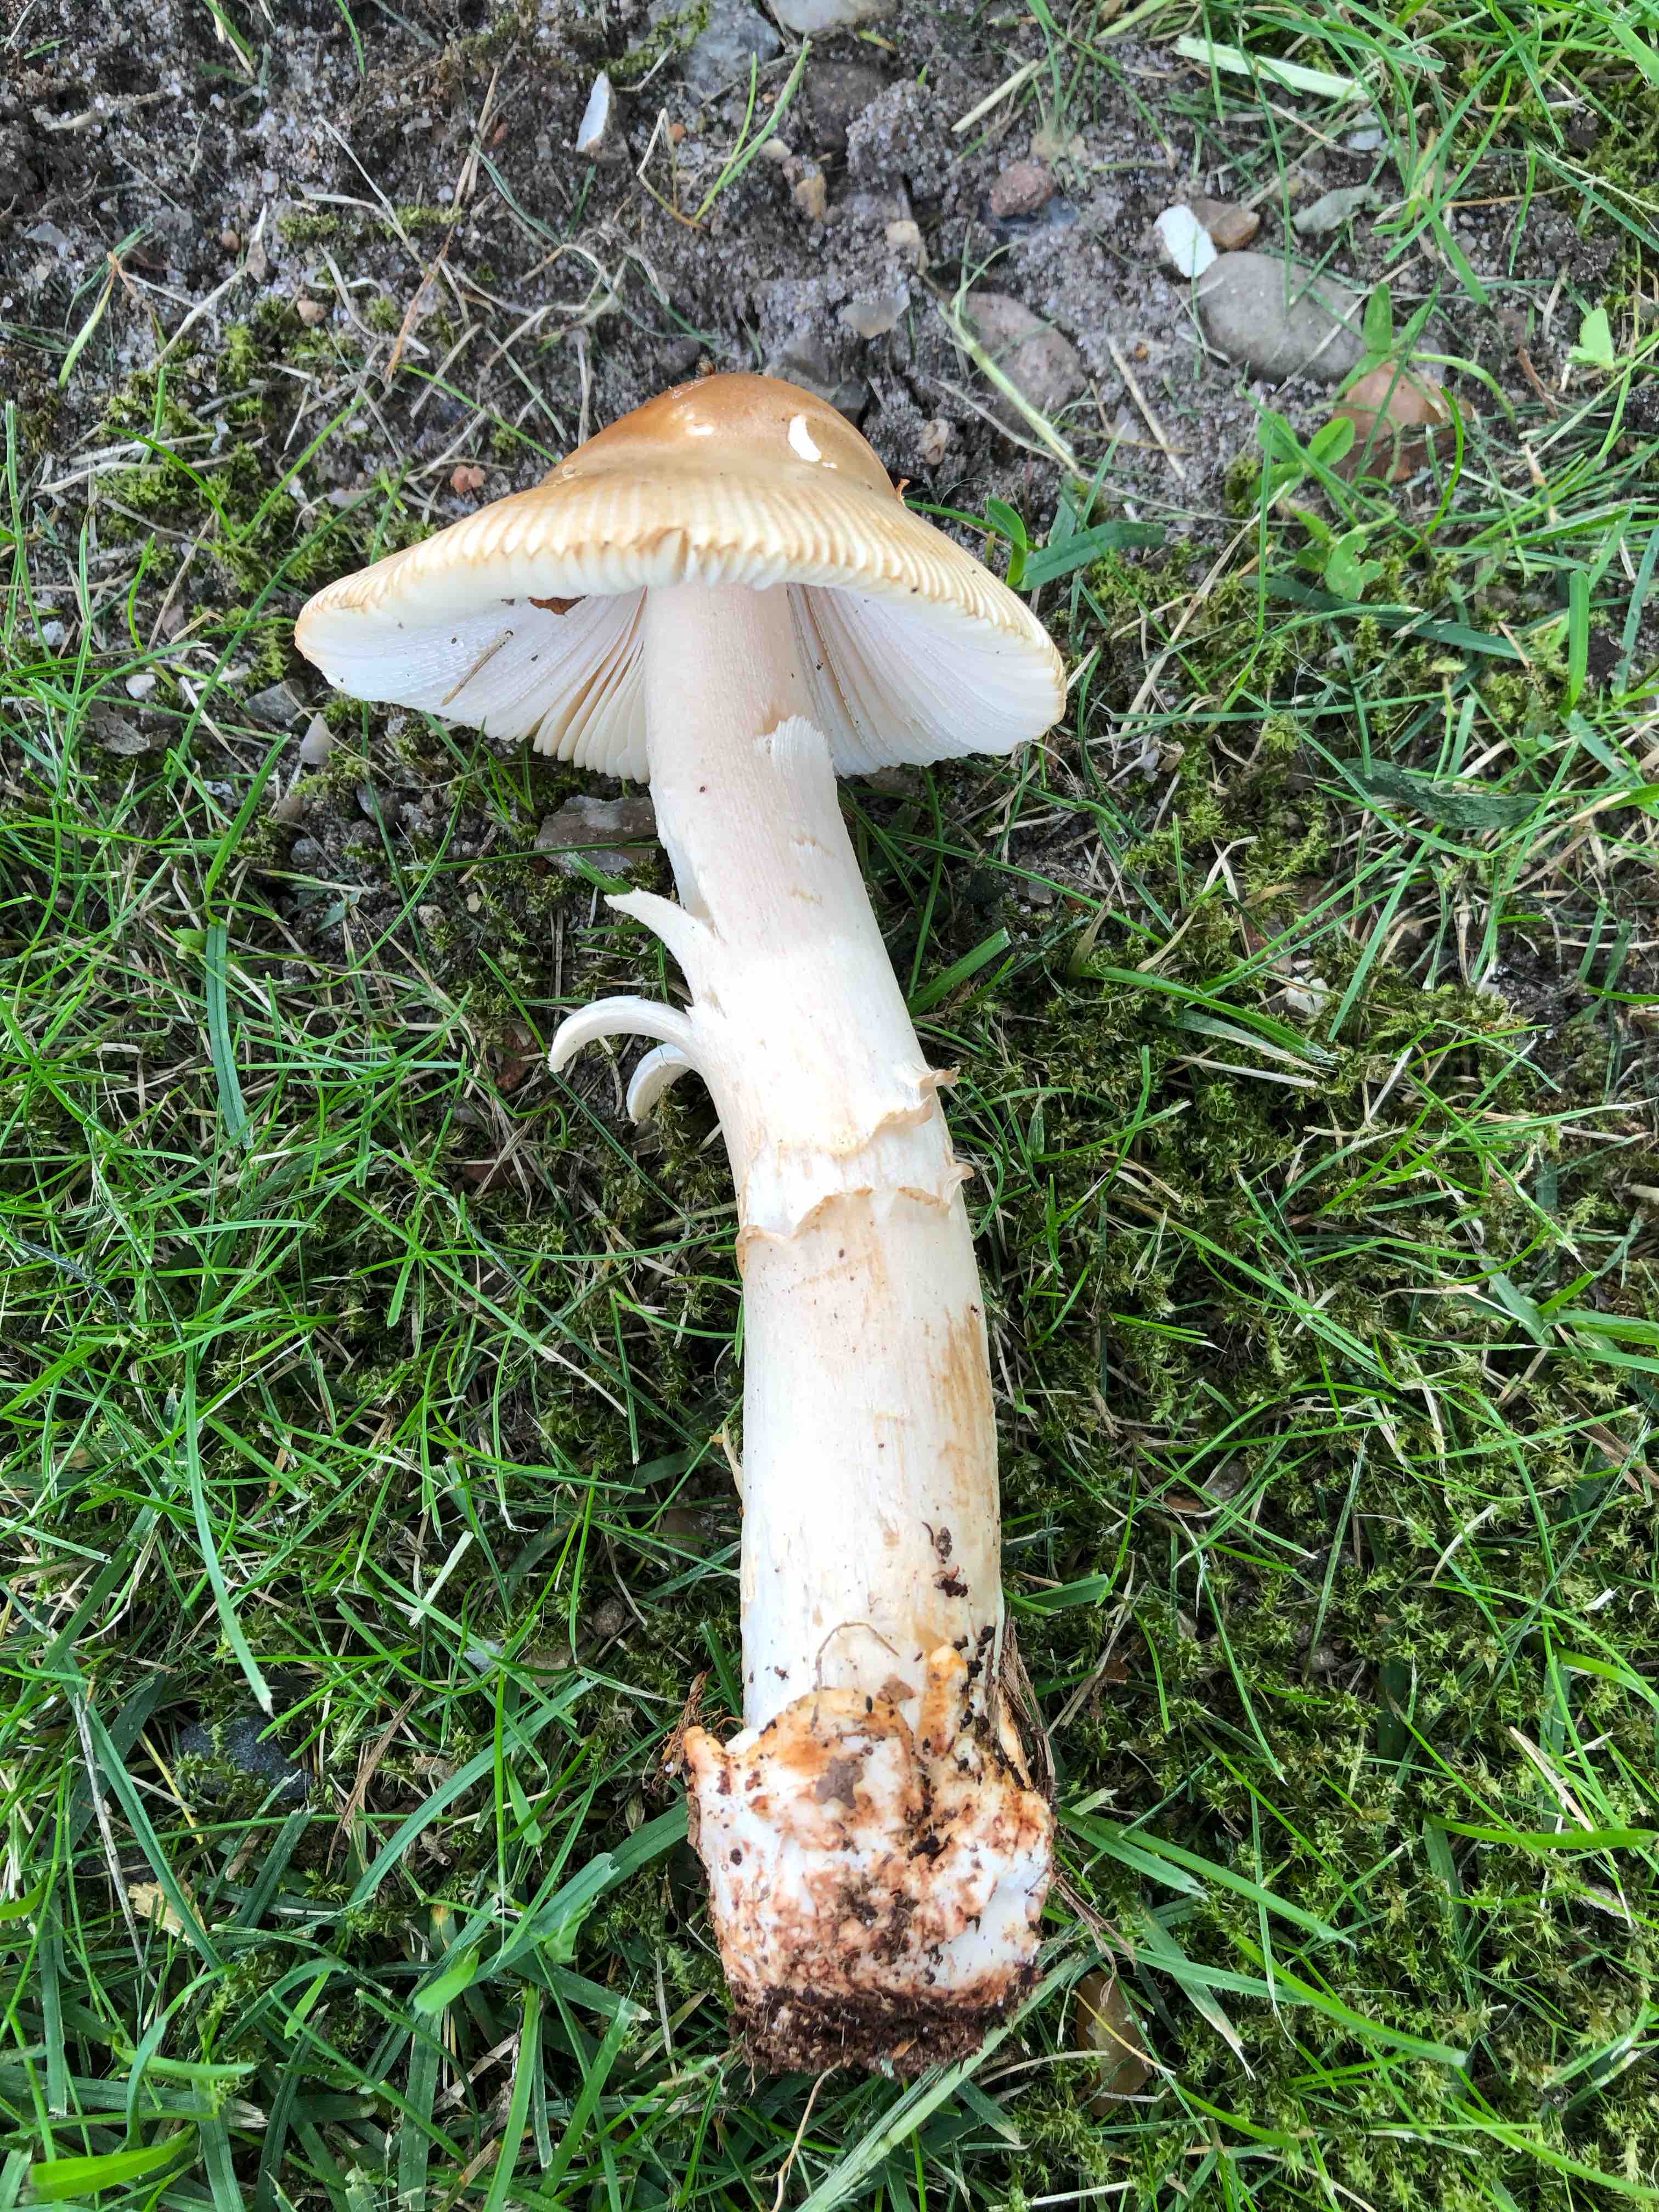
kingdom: Fungi
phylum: Basidiomycota
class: Agaricomycetes
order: Agaricales
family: Amanitaceae
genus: Amanita
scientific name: Amanita fulva
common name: brun kam-fluesvamp
